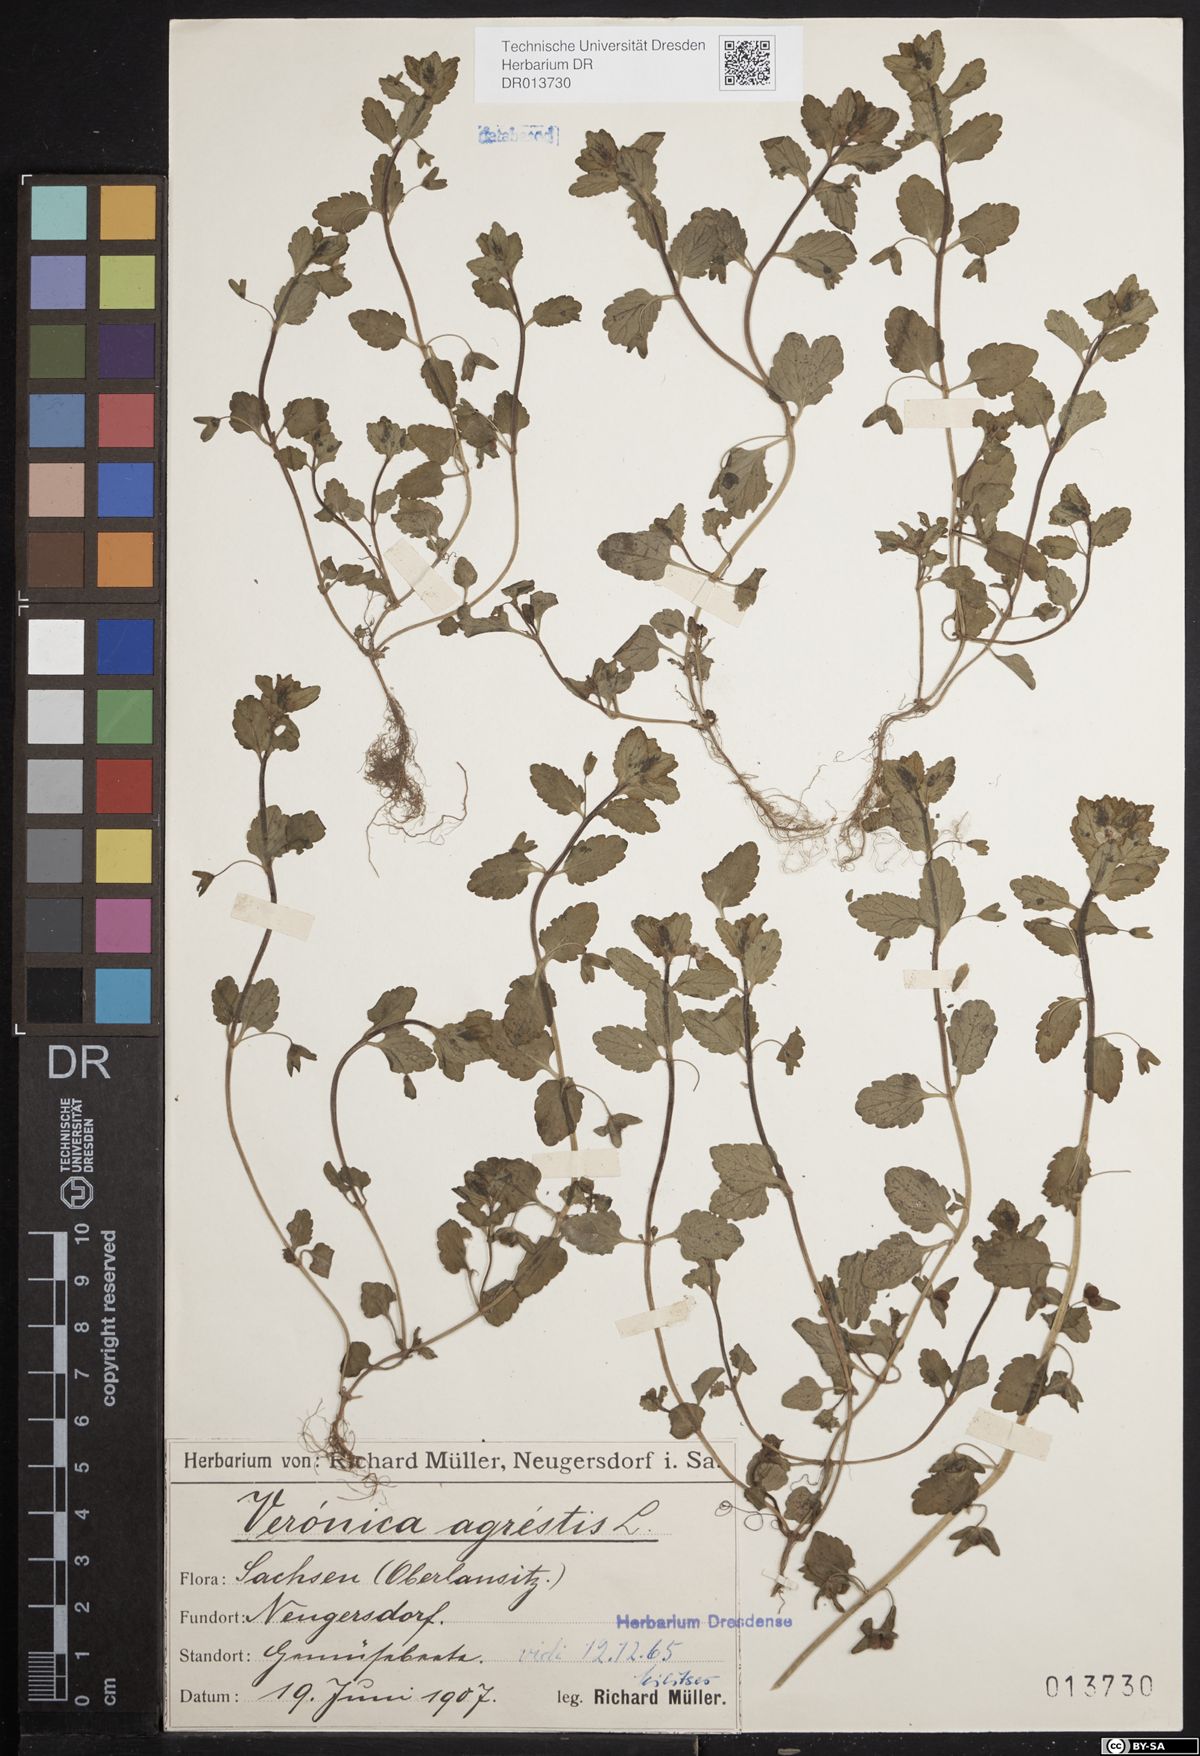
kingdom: Plantae
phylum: Tracheophyta
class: Magnoliopsida
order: Lamiales
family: Plantaginaceae
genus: Veronica
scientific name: Veronica agrestis
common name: Green field-speedwell
